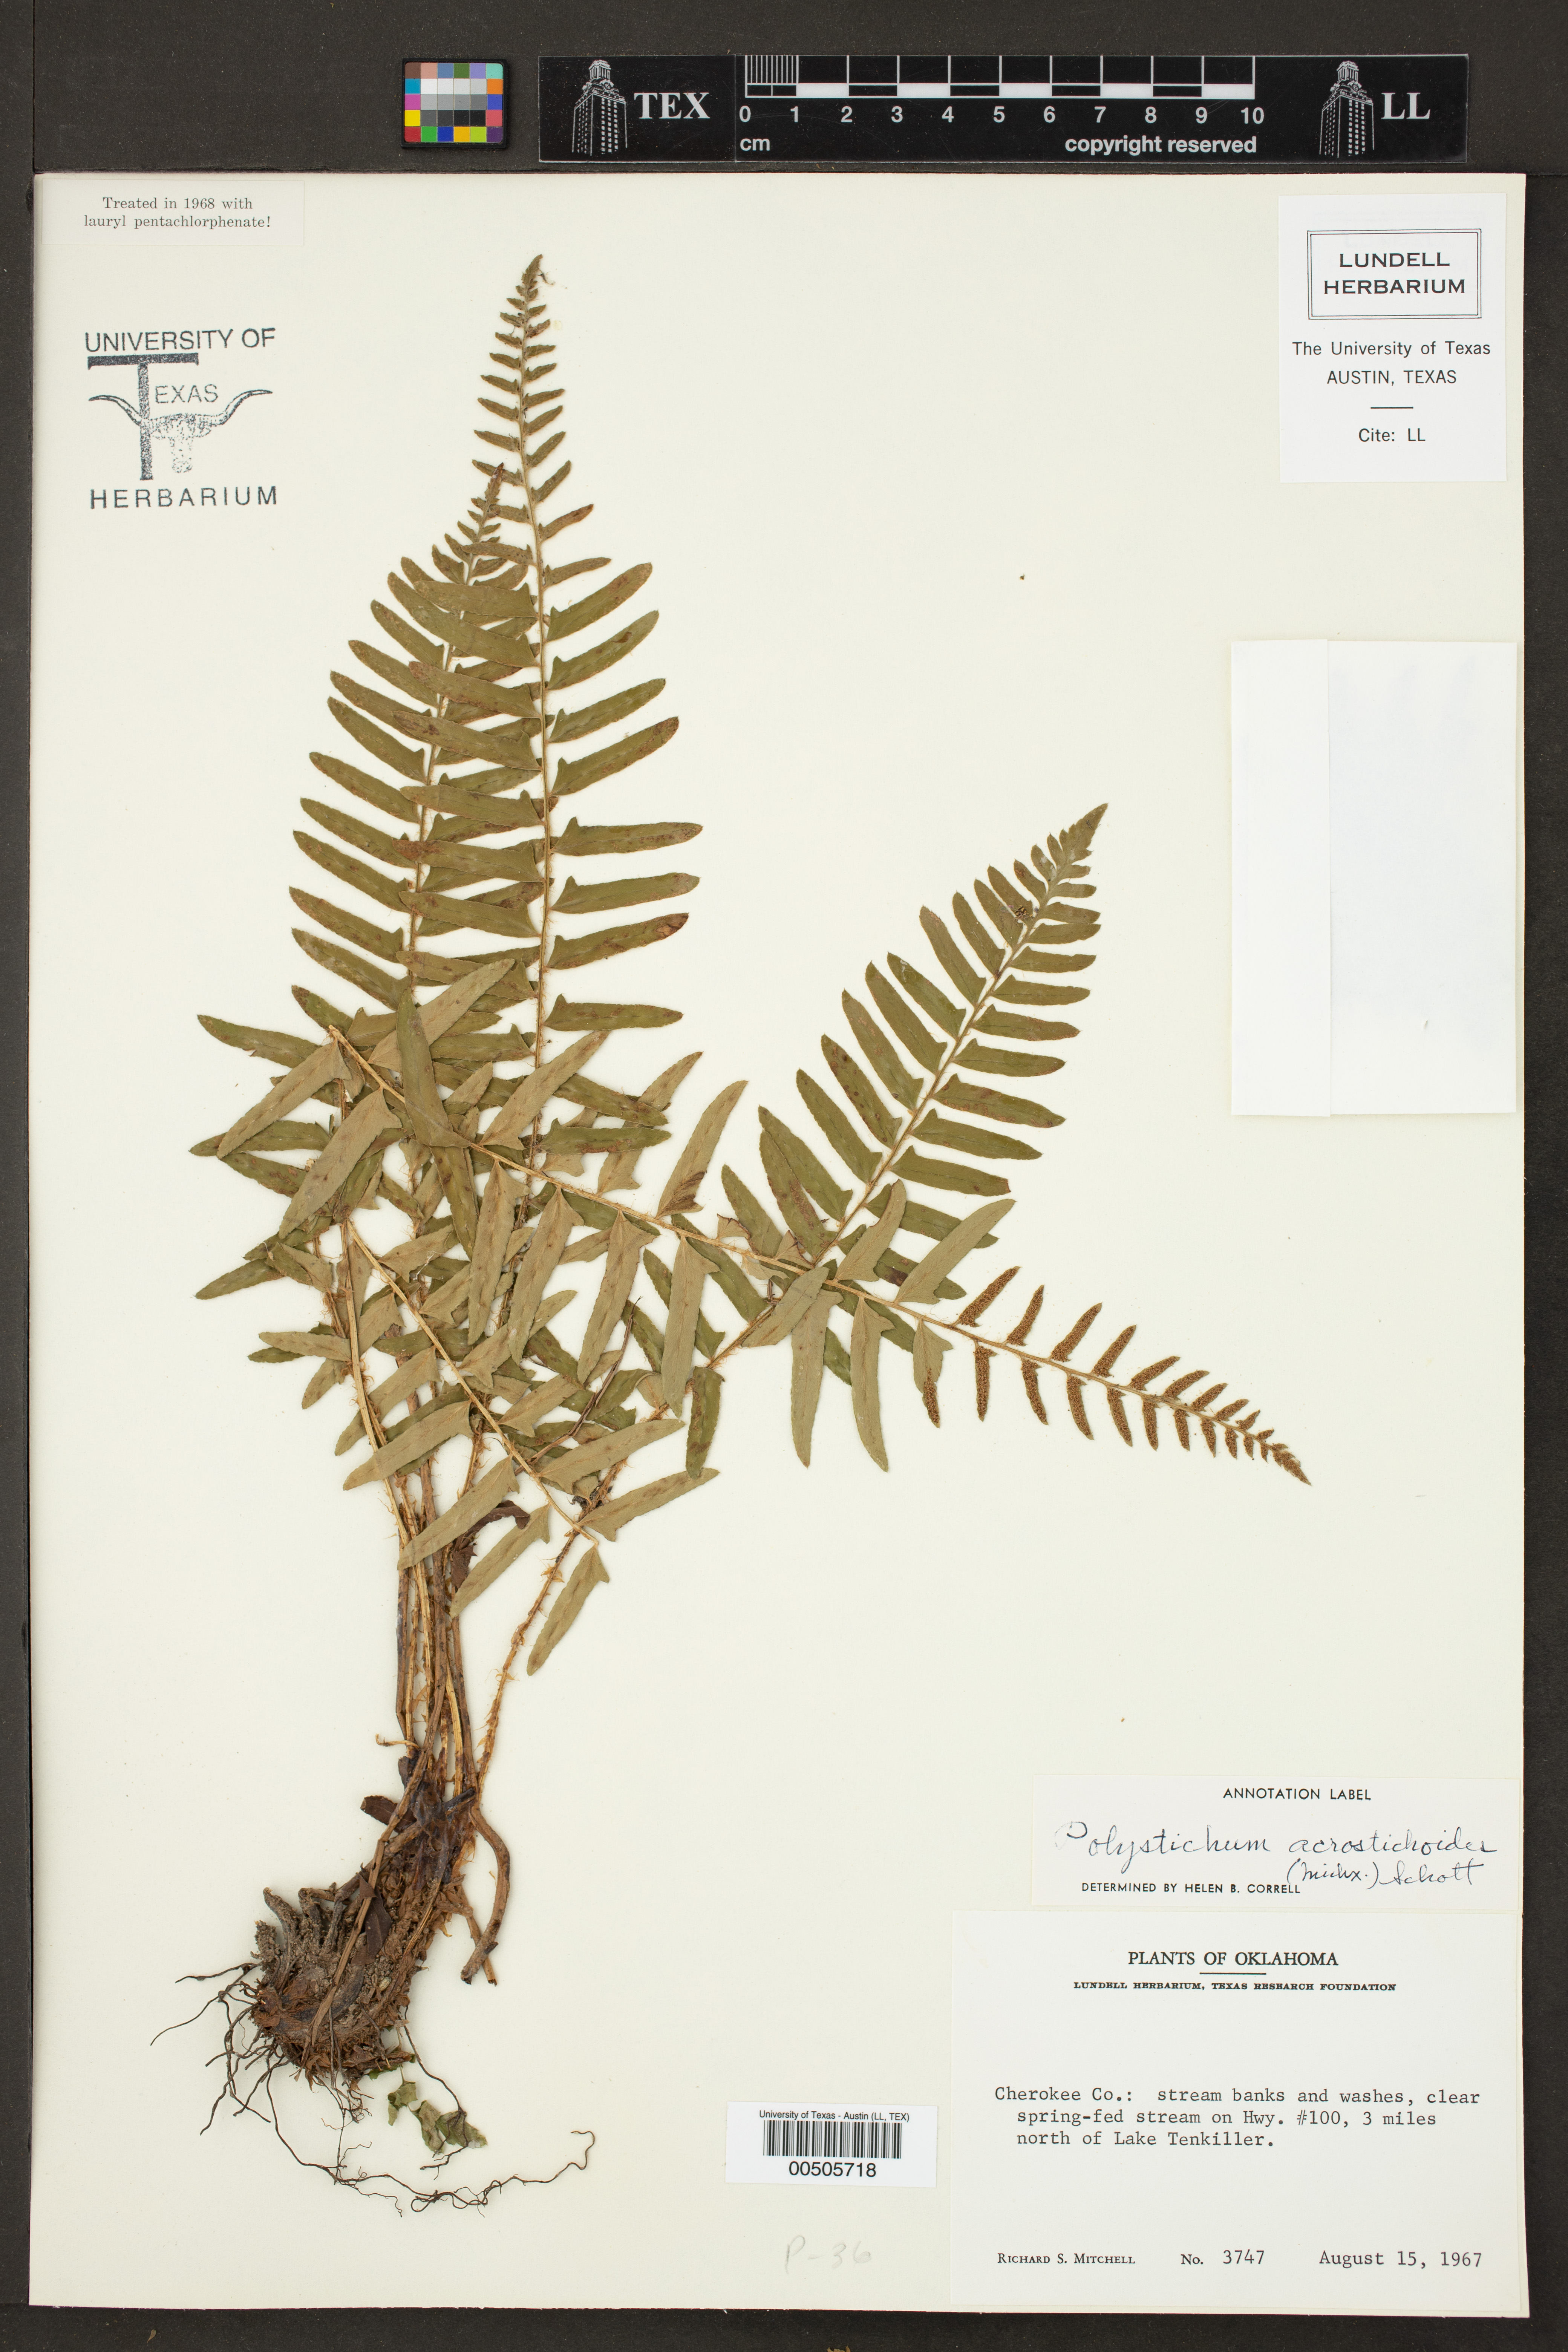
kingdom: Plantae
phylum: Tracheophyta
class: Polypodiopsida
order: Polypodiales
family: Dryopteridaceae
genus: Polystichum
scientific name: Polystichum acrostichoides
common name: Christmas fern
